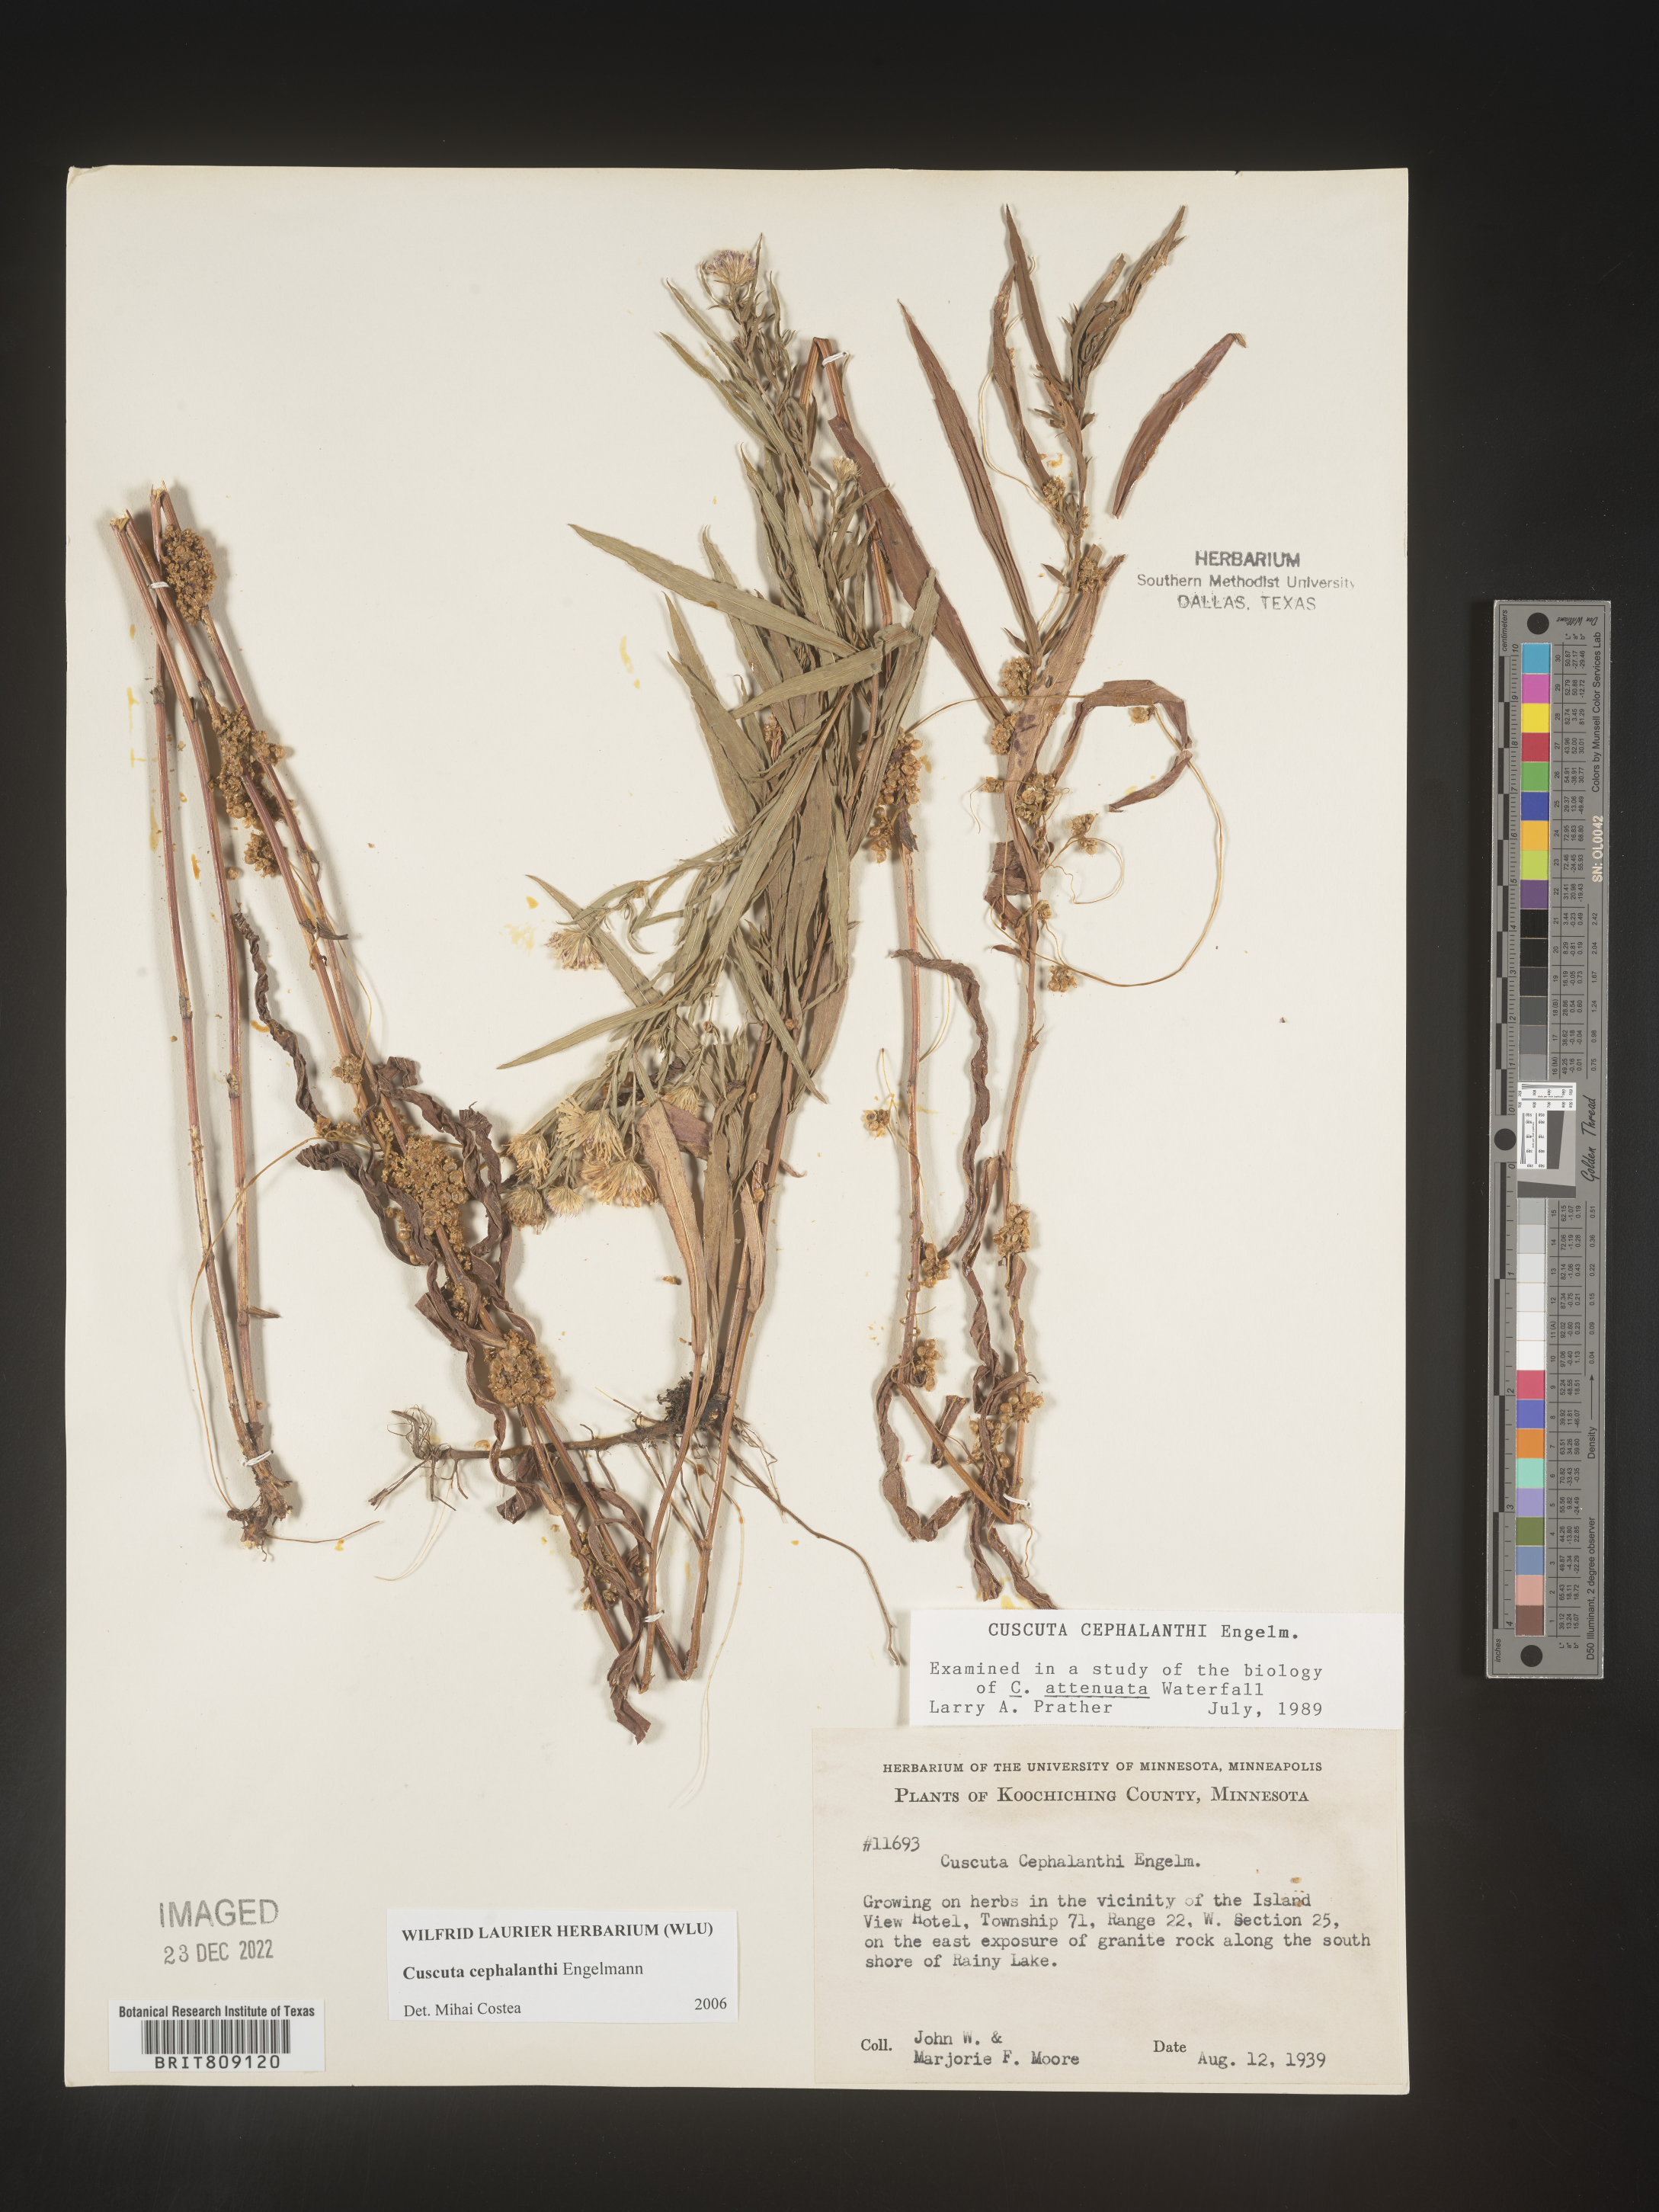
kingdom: Plantae
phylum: Tracheophyta
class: Magnoliopsida
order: Solanales
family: Convolvulaceae
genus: Cuscuta
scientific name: Cuscuta cephalanthi
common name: Button dodder
